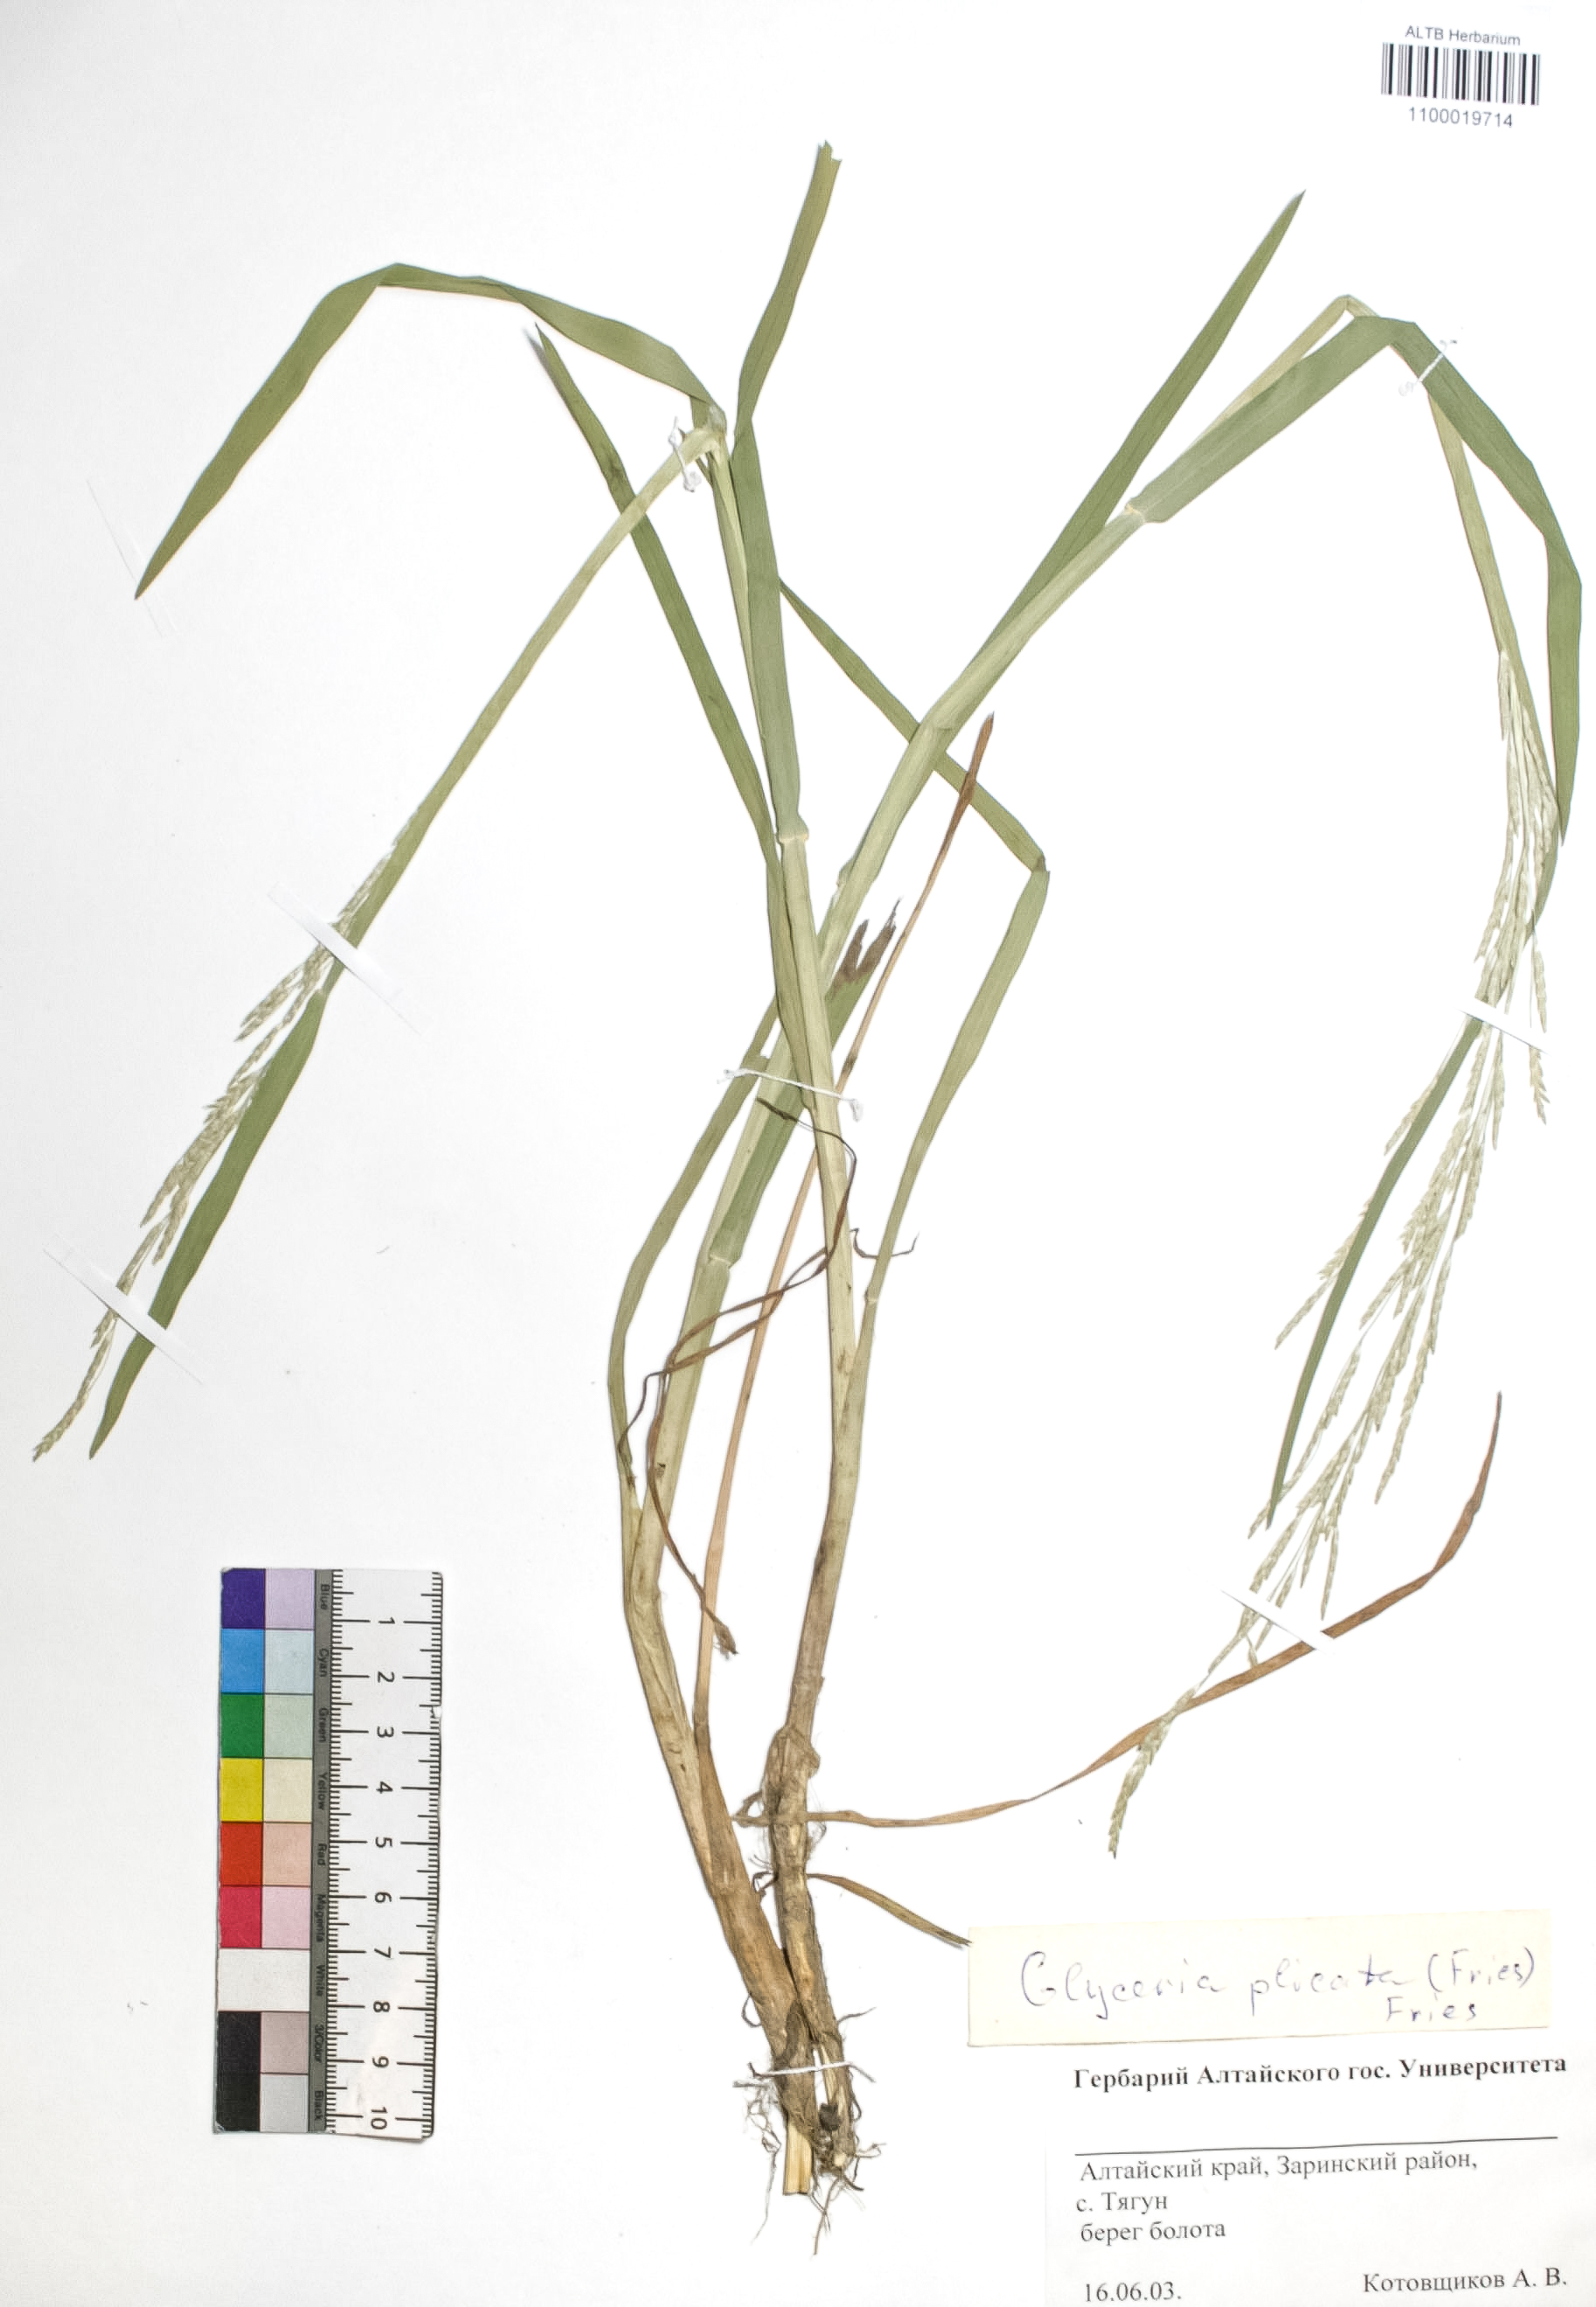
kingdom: Plantae
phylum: Tracheophyta
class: Liliopsida
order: Poales
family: Poaceae
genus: Glyceria
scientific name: Glyceria notata
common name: Plicate sweet-grass
